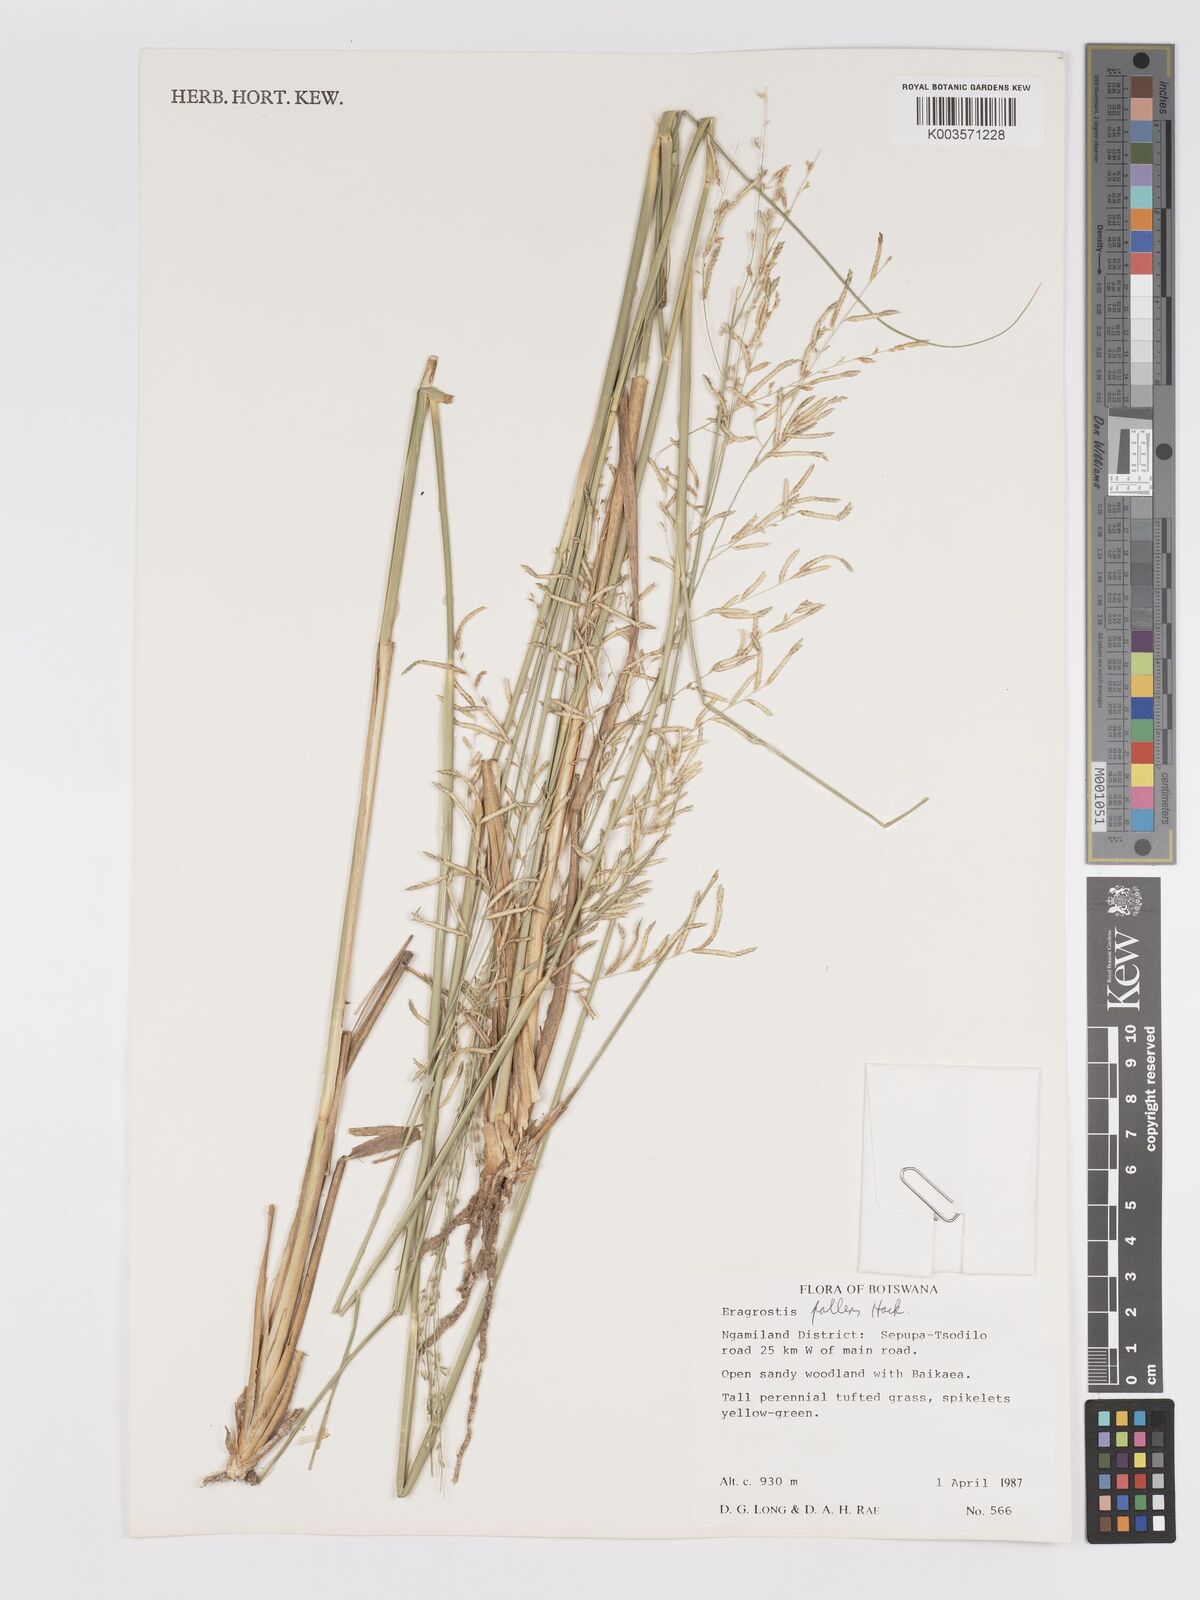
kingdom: Plantae
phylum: Tracheophyta
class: Liliopsida
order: Poales
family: Poaceae
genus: Eragrostis
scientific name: Eragrostis pallens
